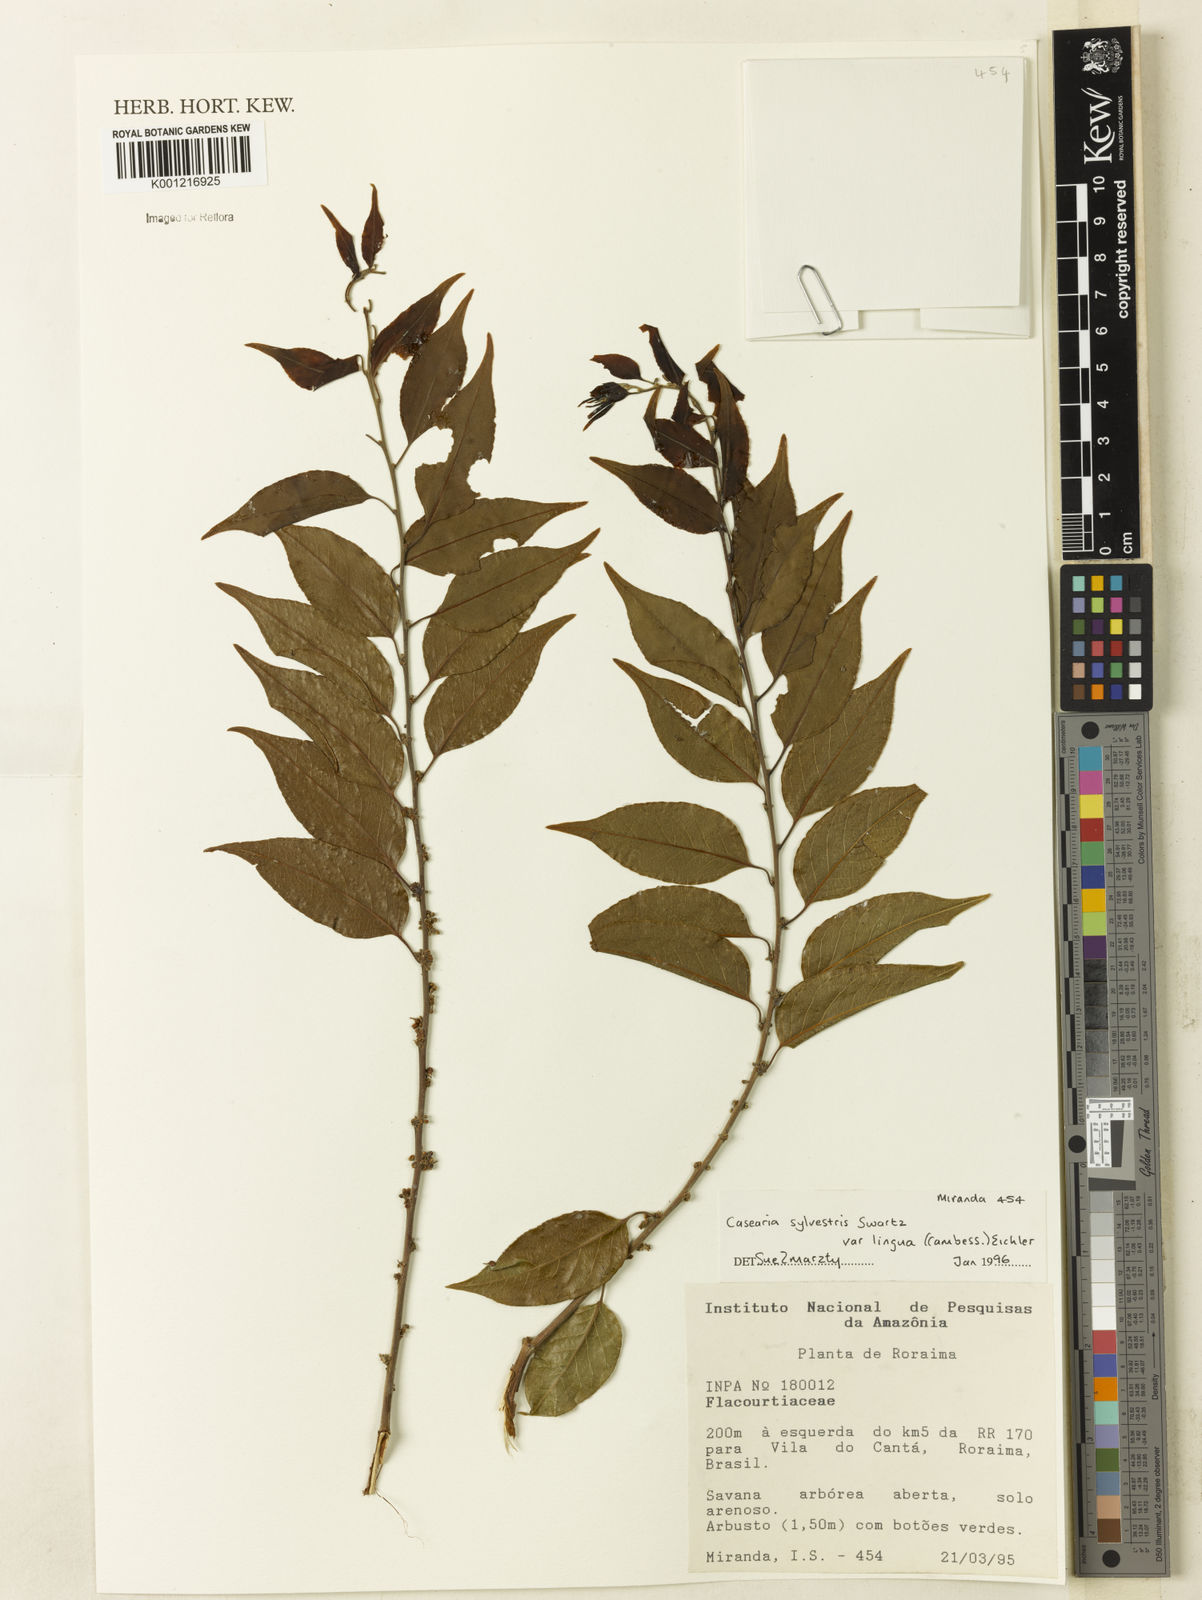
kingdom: Plantae
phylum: Tracheophyta
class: Magnoliopsida
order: Malpighiales
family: Salicaceae
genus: Casearia
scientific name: Casearia sylvestris
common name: Wild sage
